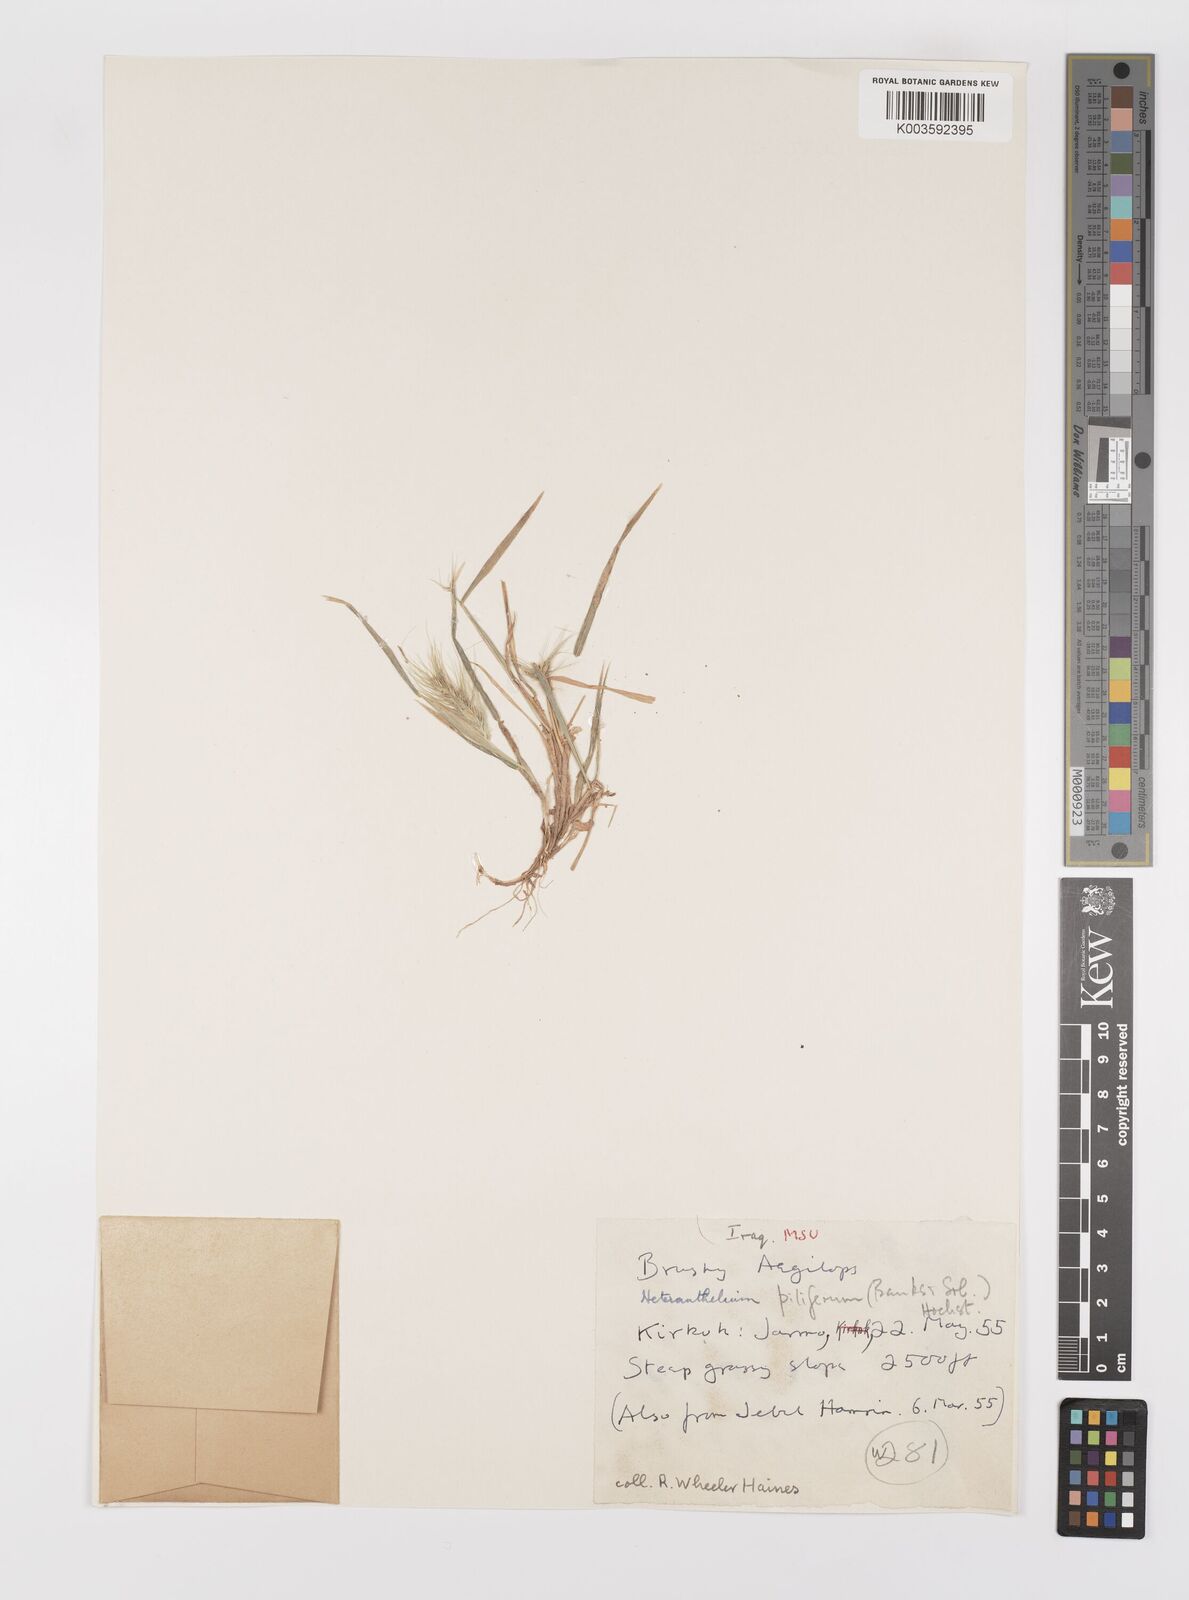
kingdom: Plantae
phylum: Tracheophyta
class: Liliopsida
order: Poales
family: Poaceae
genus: Heteranthelium
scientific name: Heteranthelium piliferum
